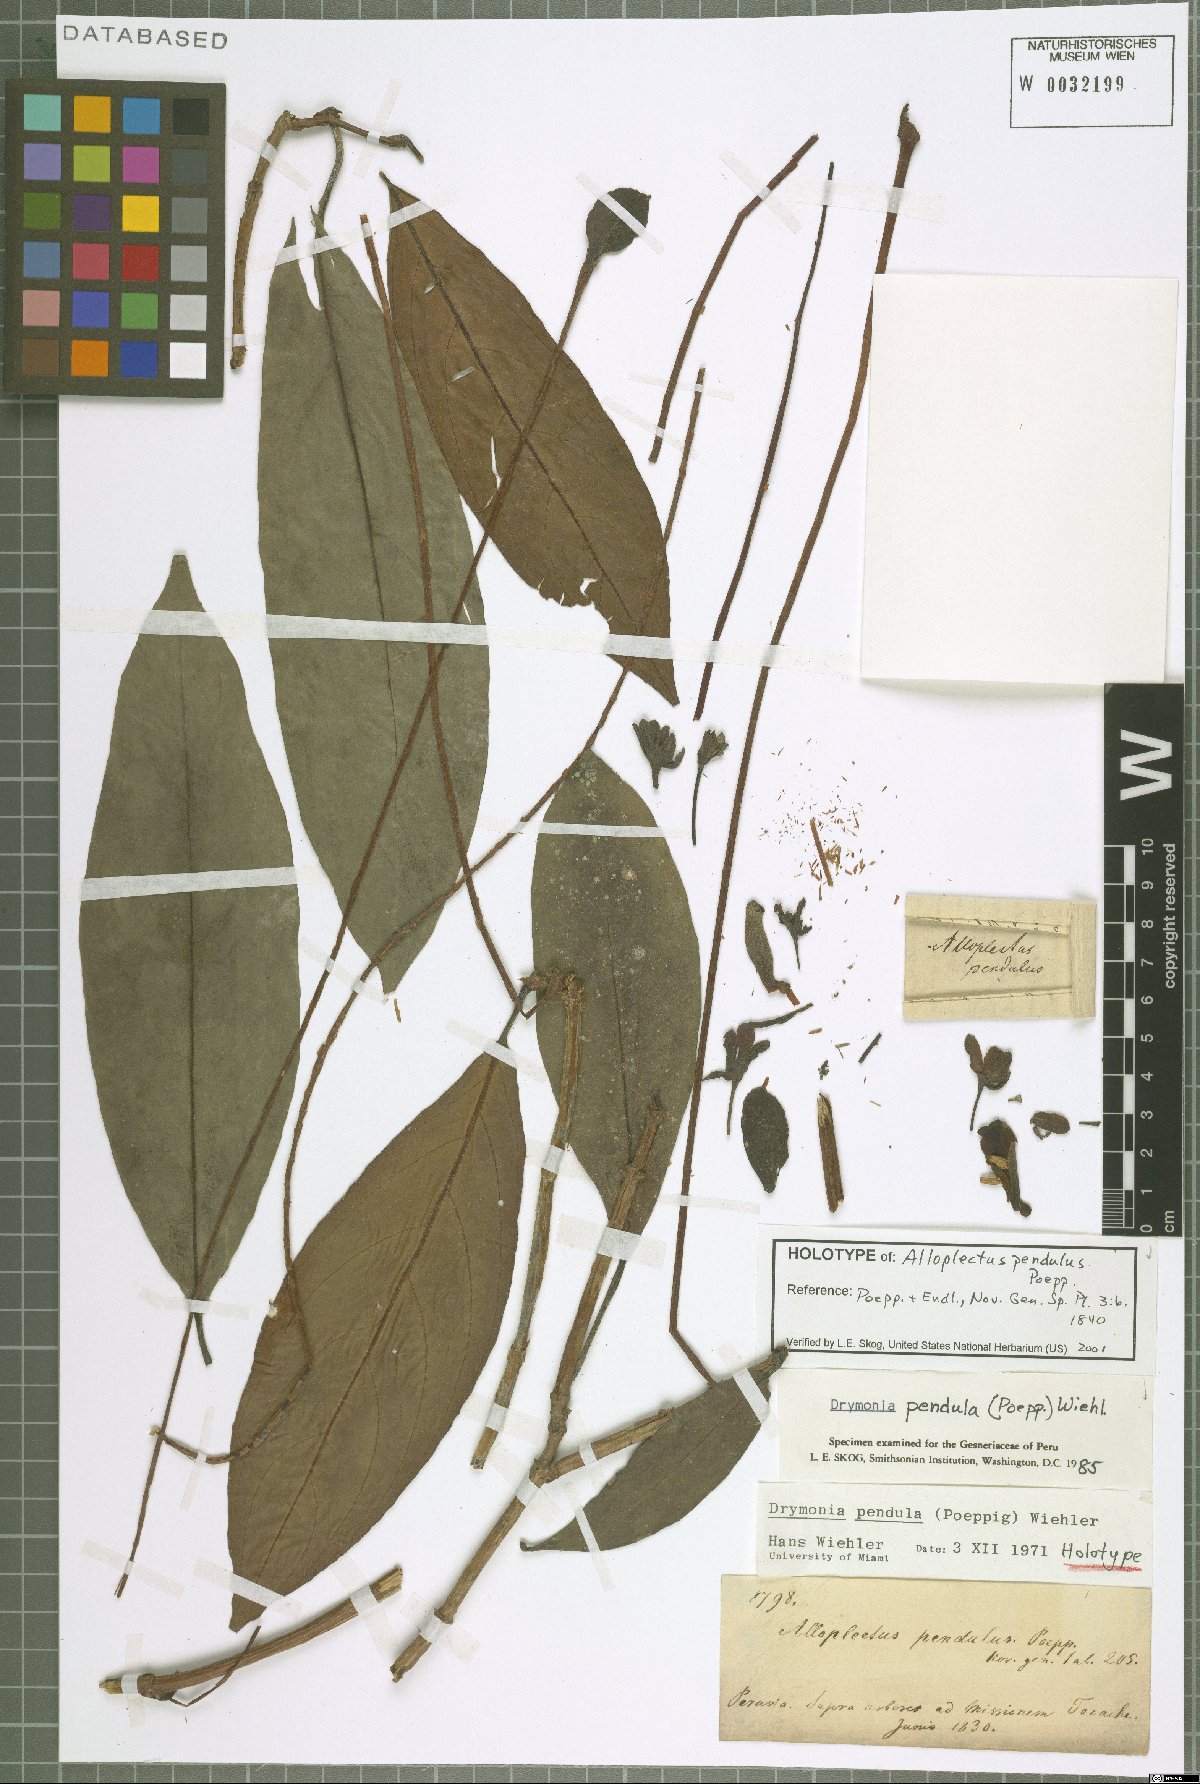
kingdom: Plantae
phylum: Tracheophyta
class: Magnoliopsida
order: Lamiales
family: Gesneriaceae
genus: Drymonia
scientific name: Drymonia pendula
